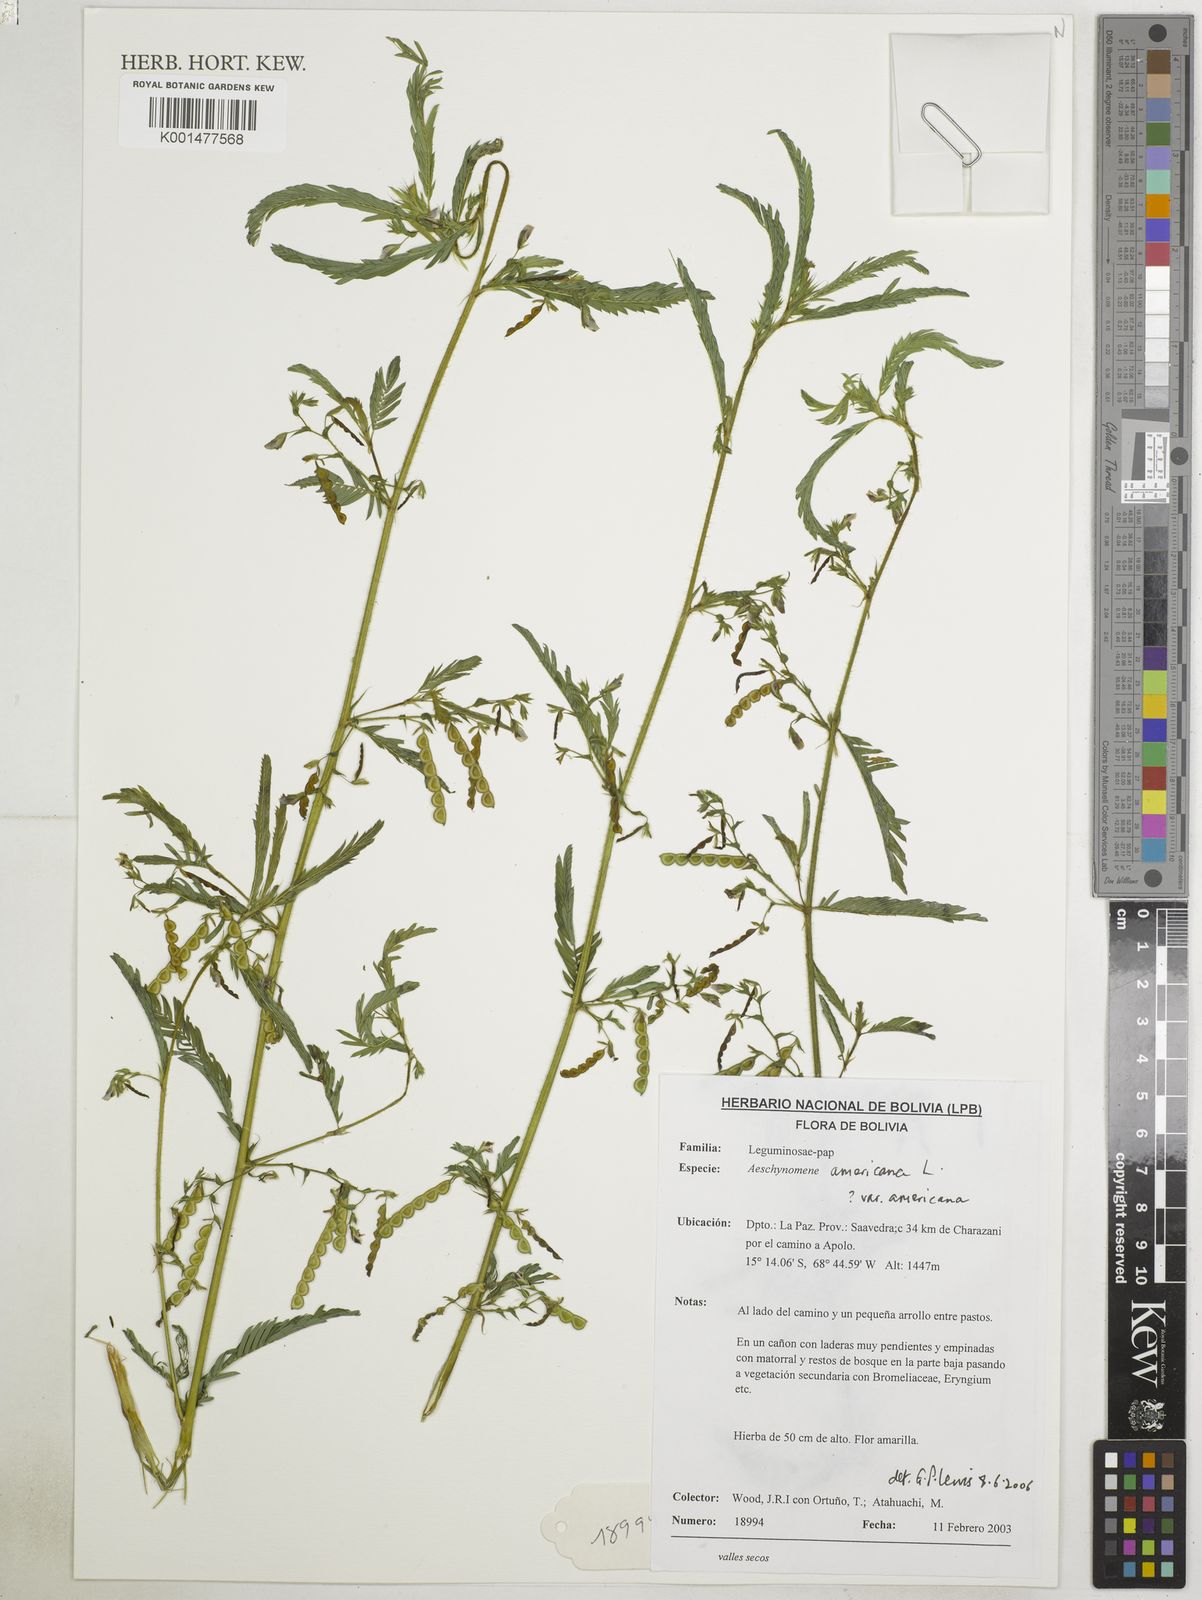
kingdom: Plantae
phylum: Tracheophyta
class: Magnoliopsida
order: Fabales
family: Fabaceae
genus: Ctenodon
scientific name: Ctenodon elegans
